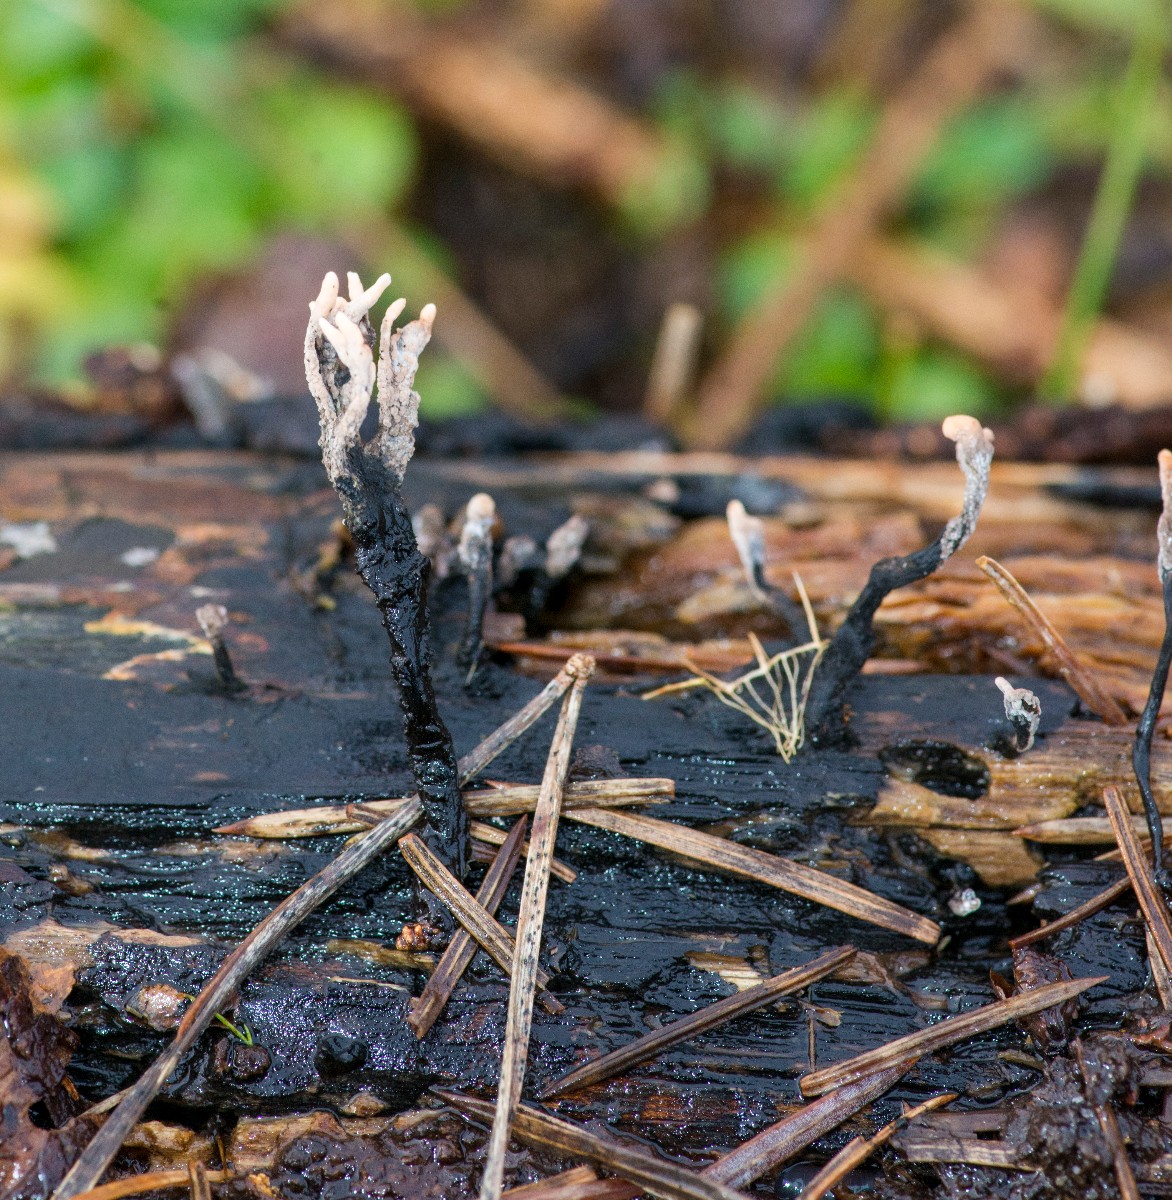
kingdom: Fungi
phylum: Ascomycota
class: Sordariomycetes
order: Xylariales
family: Xylariaceae
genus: Xylaria
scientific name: Xylaria hypoxylon
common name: grenet stødsvamp
